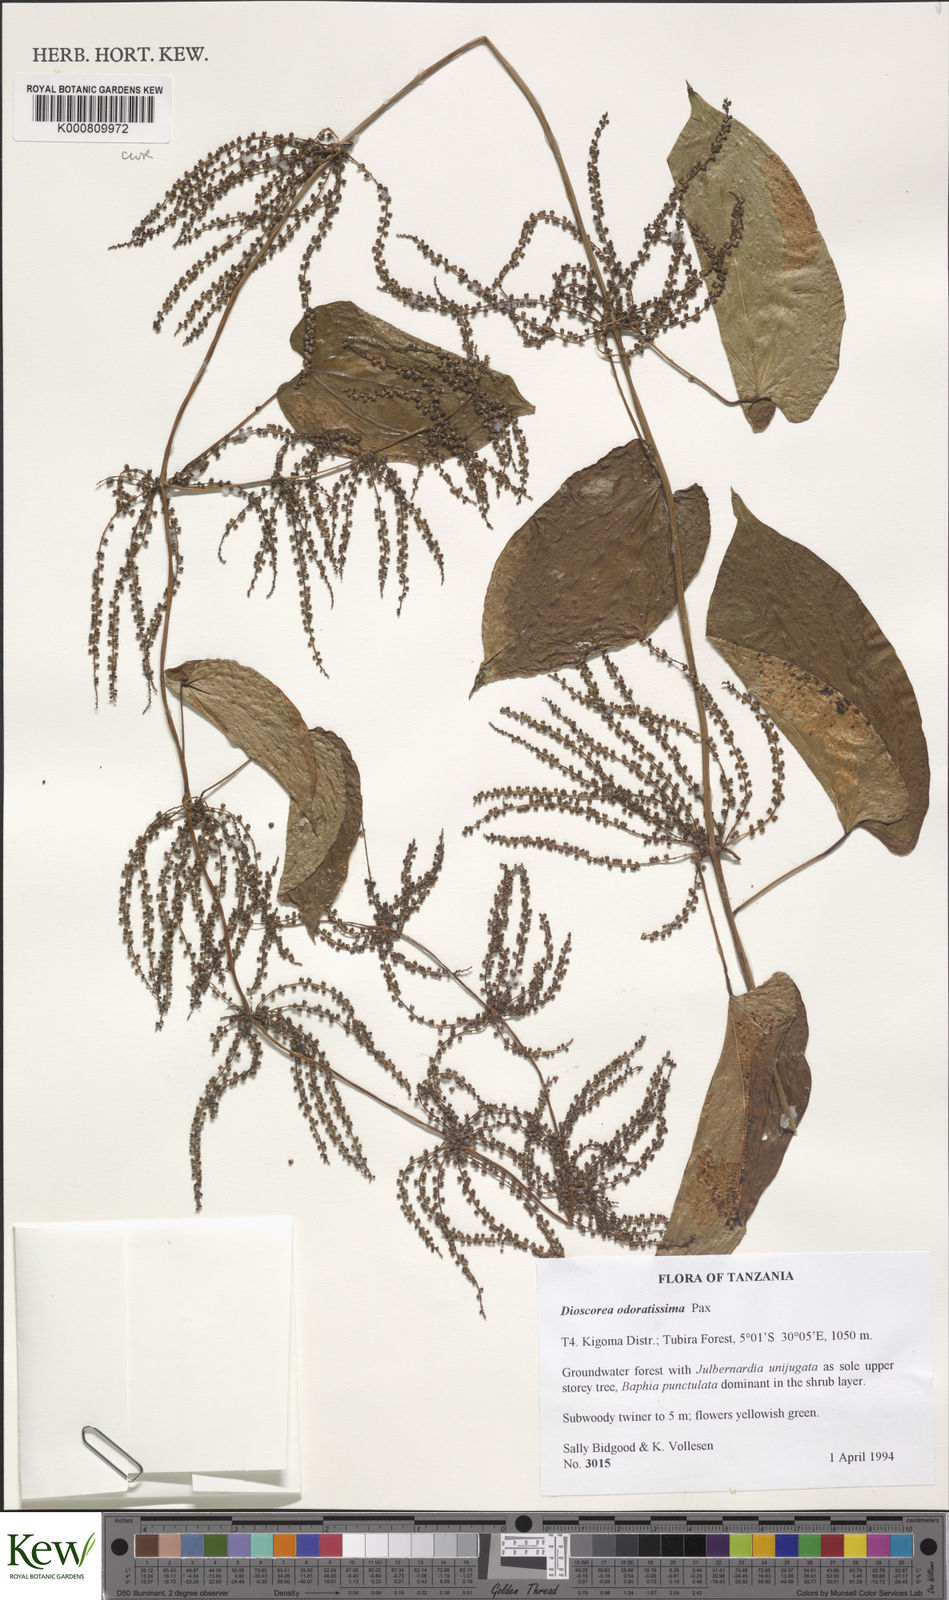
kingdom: Plantae
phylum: Tracheophyta
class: Liliopsida
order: Dioscoreales
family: Dioscoreaceae
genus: Dioscorea
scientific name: Dioscorea praehensilis
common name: Bush yam
